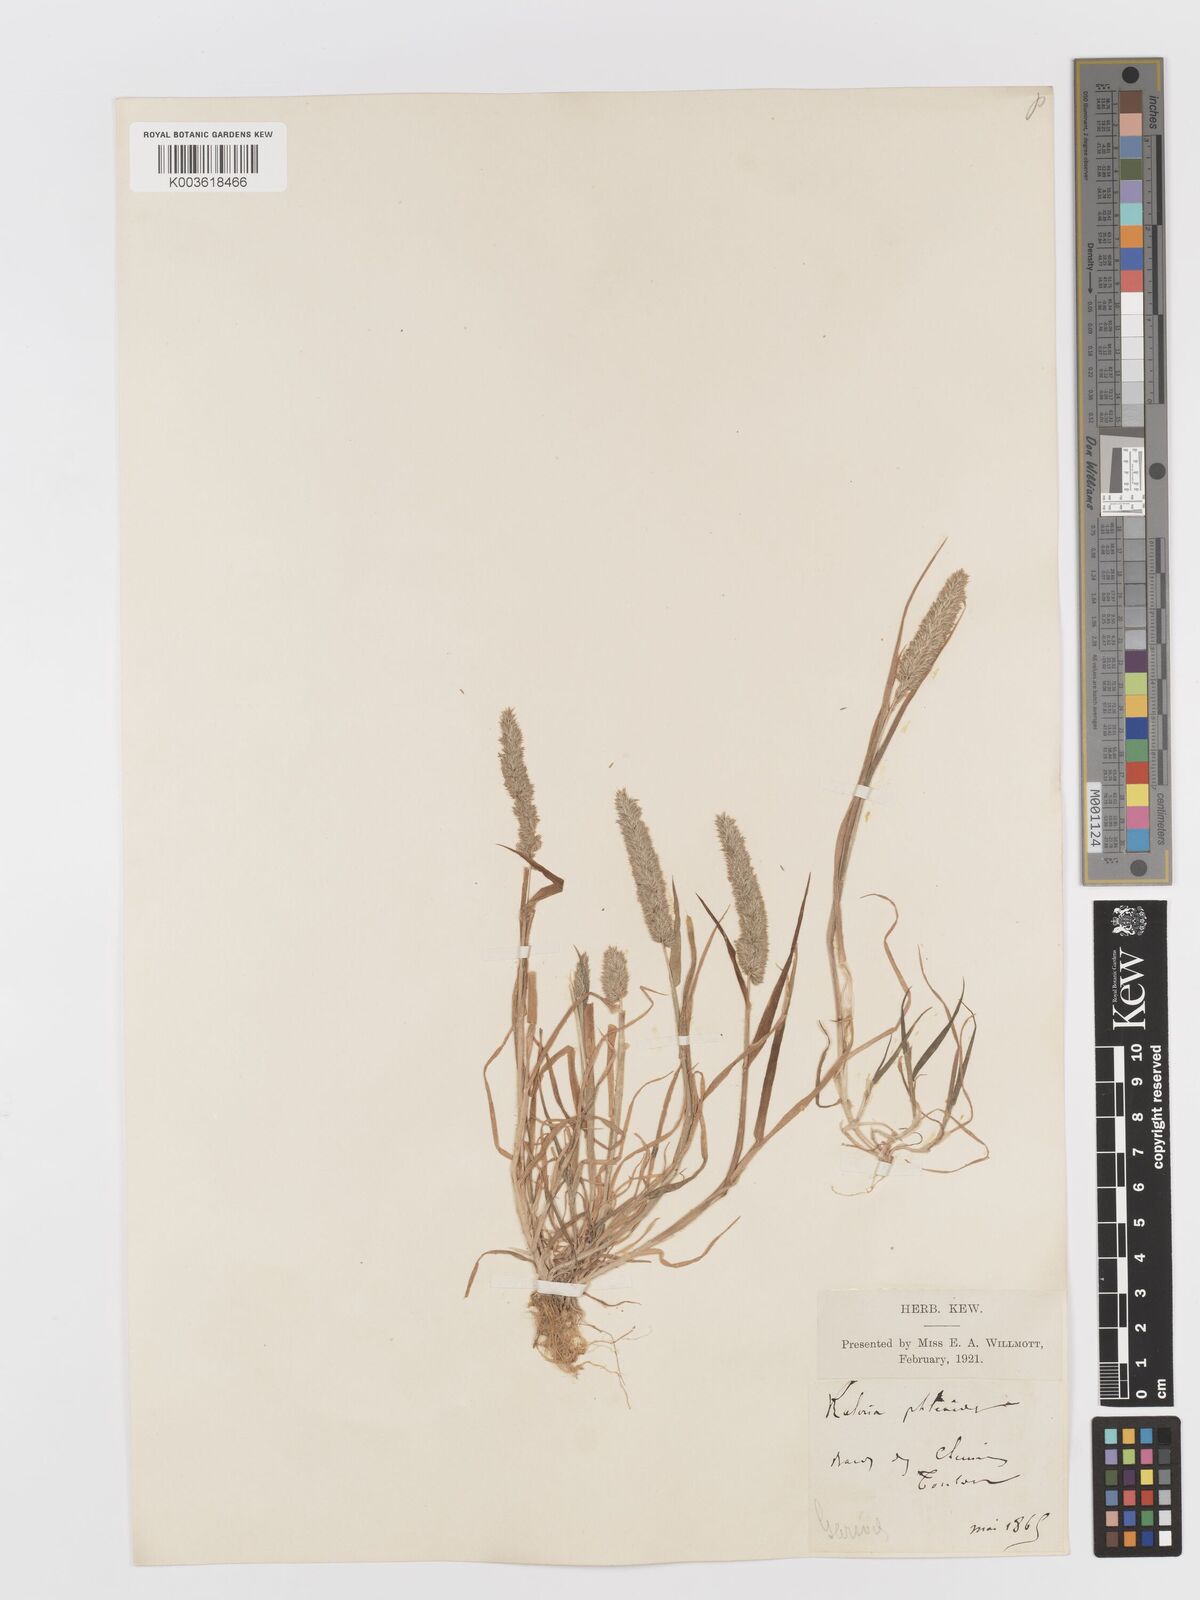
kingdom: Plantae
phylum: Tracheophyta
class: Liliopsida
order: Poales
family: Poaceae
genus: Rostraria
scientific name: Rostraria cristata
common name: Mediterranean hair-grass
